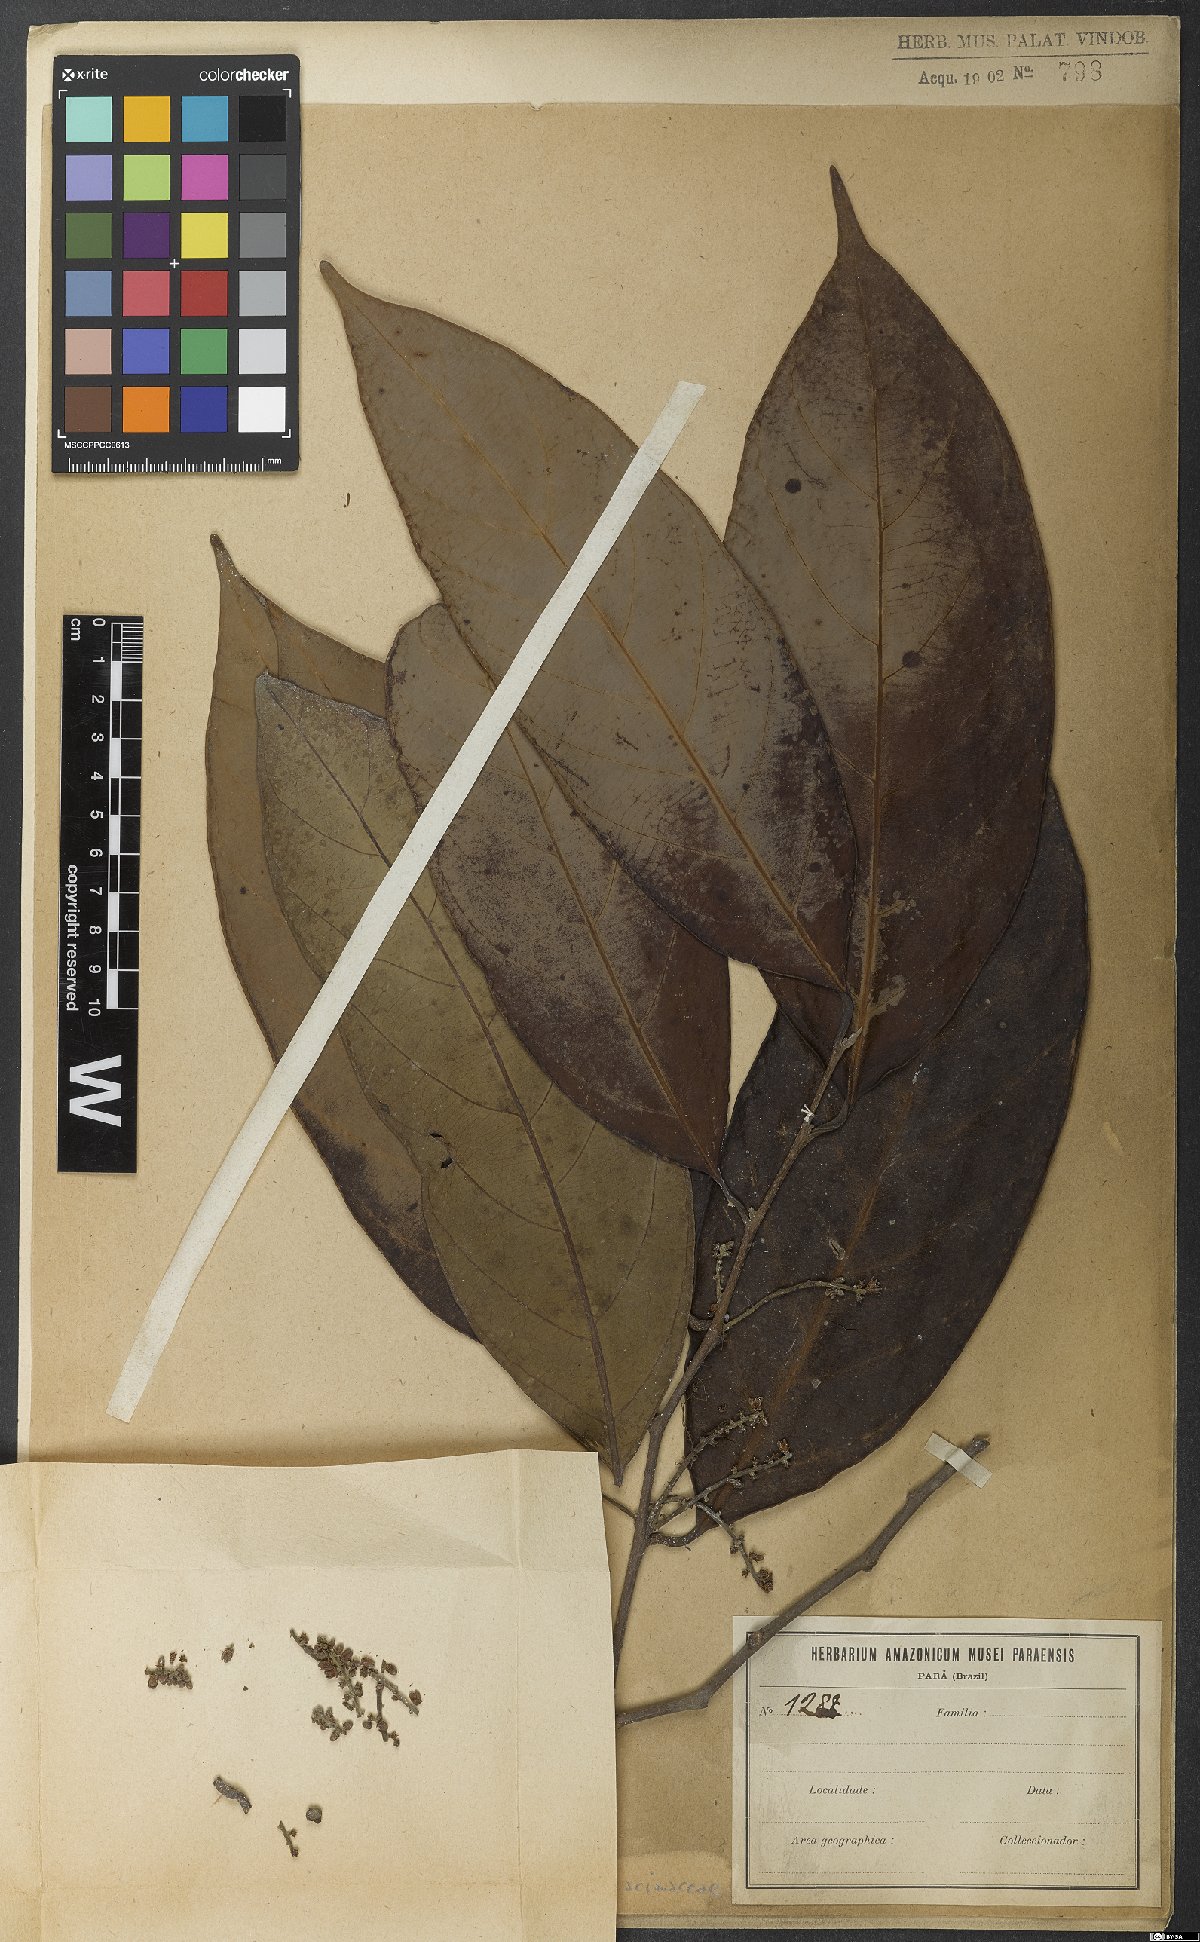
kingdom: Plantae
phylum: Tracheophyta
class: Magnoliopsida
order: Icacinales
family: Icacinaceae
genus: Poraqueiba
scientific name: Poraqueiba
